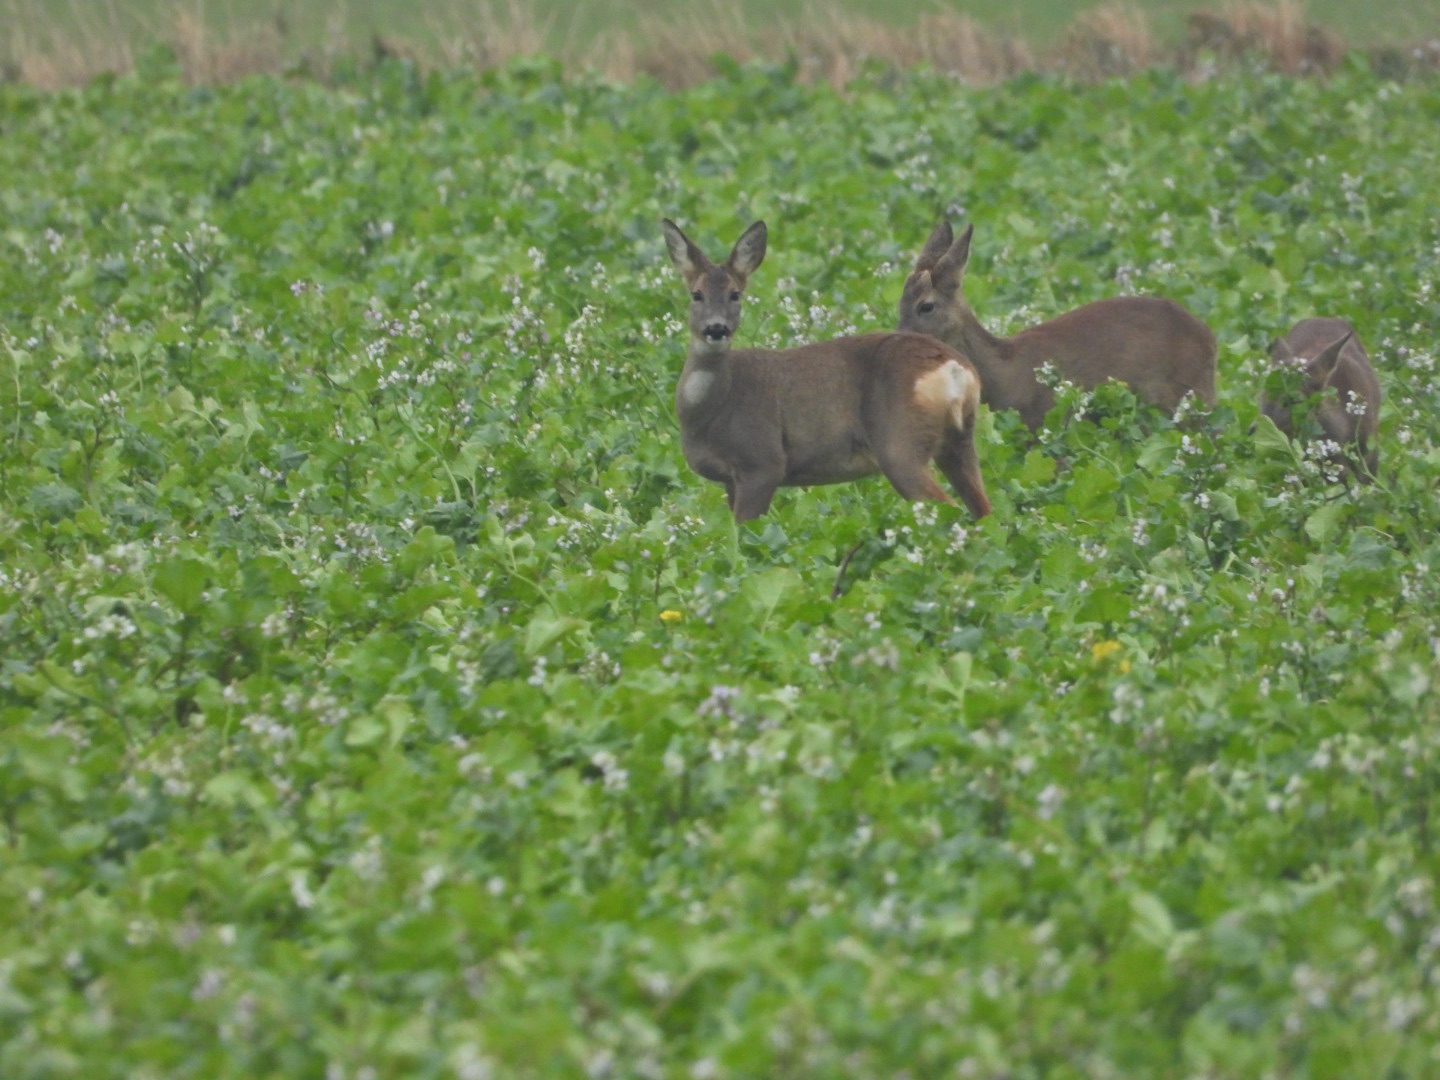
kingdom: Animalia
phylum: Chordata
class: Mammalia
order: Artiodactyla
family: Cervidae
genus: Capreolus
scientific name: Capreolus capreolus
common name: Rådyr
